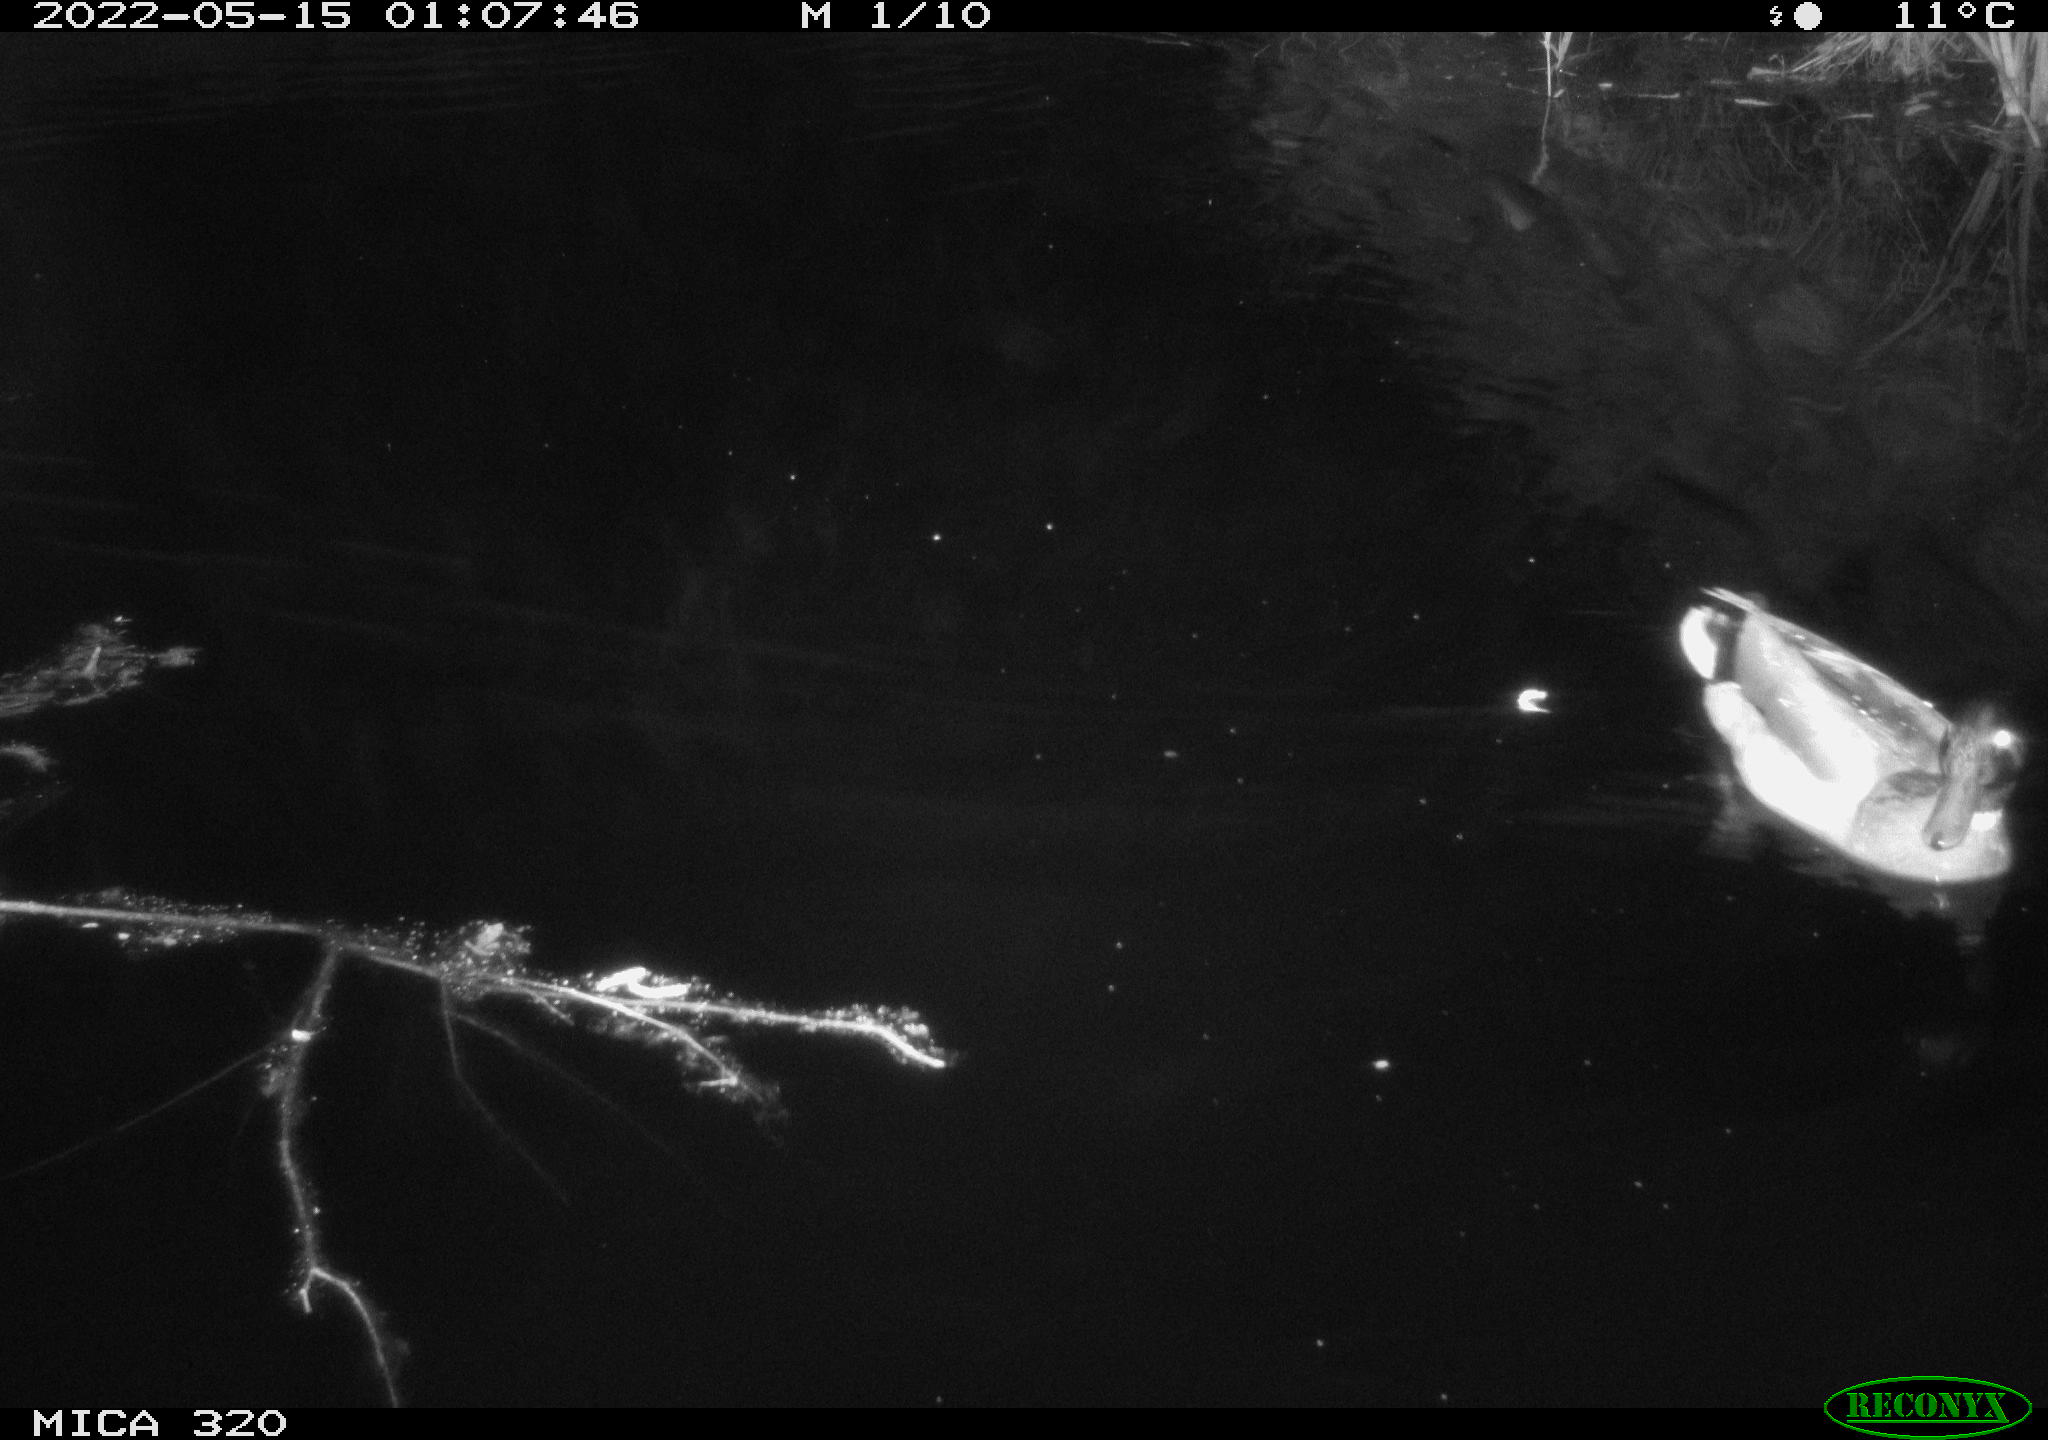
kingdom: Animalia
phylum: Chordata
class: Aves
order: Anseriformes
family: Anatidae
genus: Anas
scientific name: Anas platyrhynchos
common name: Mallard
